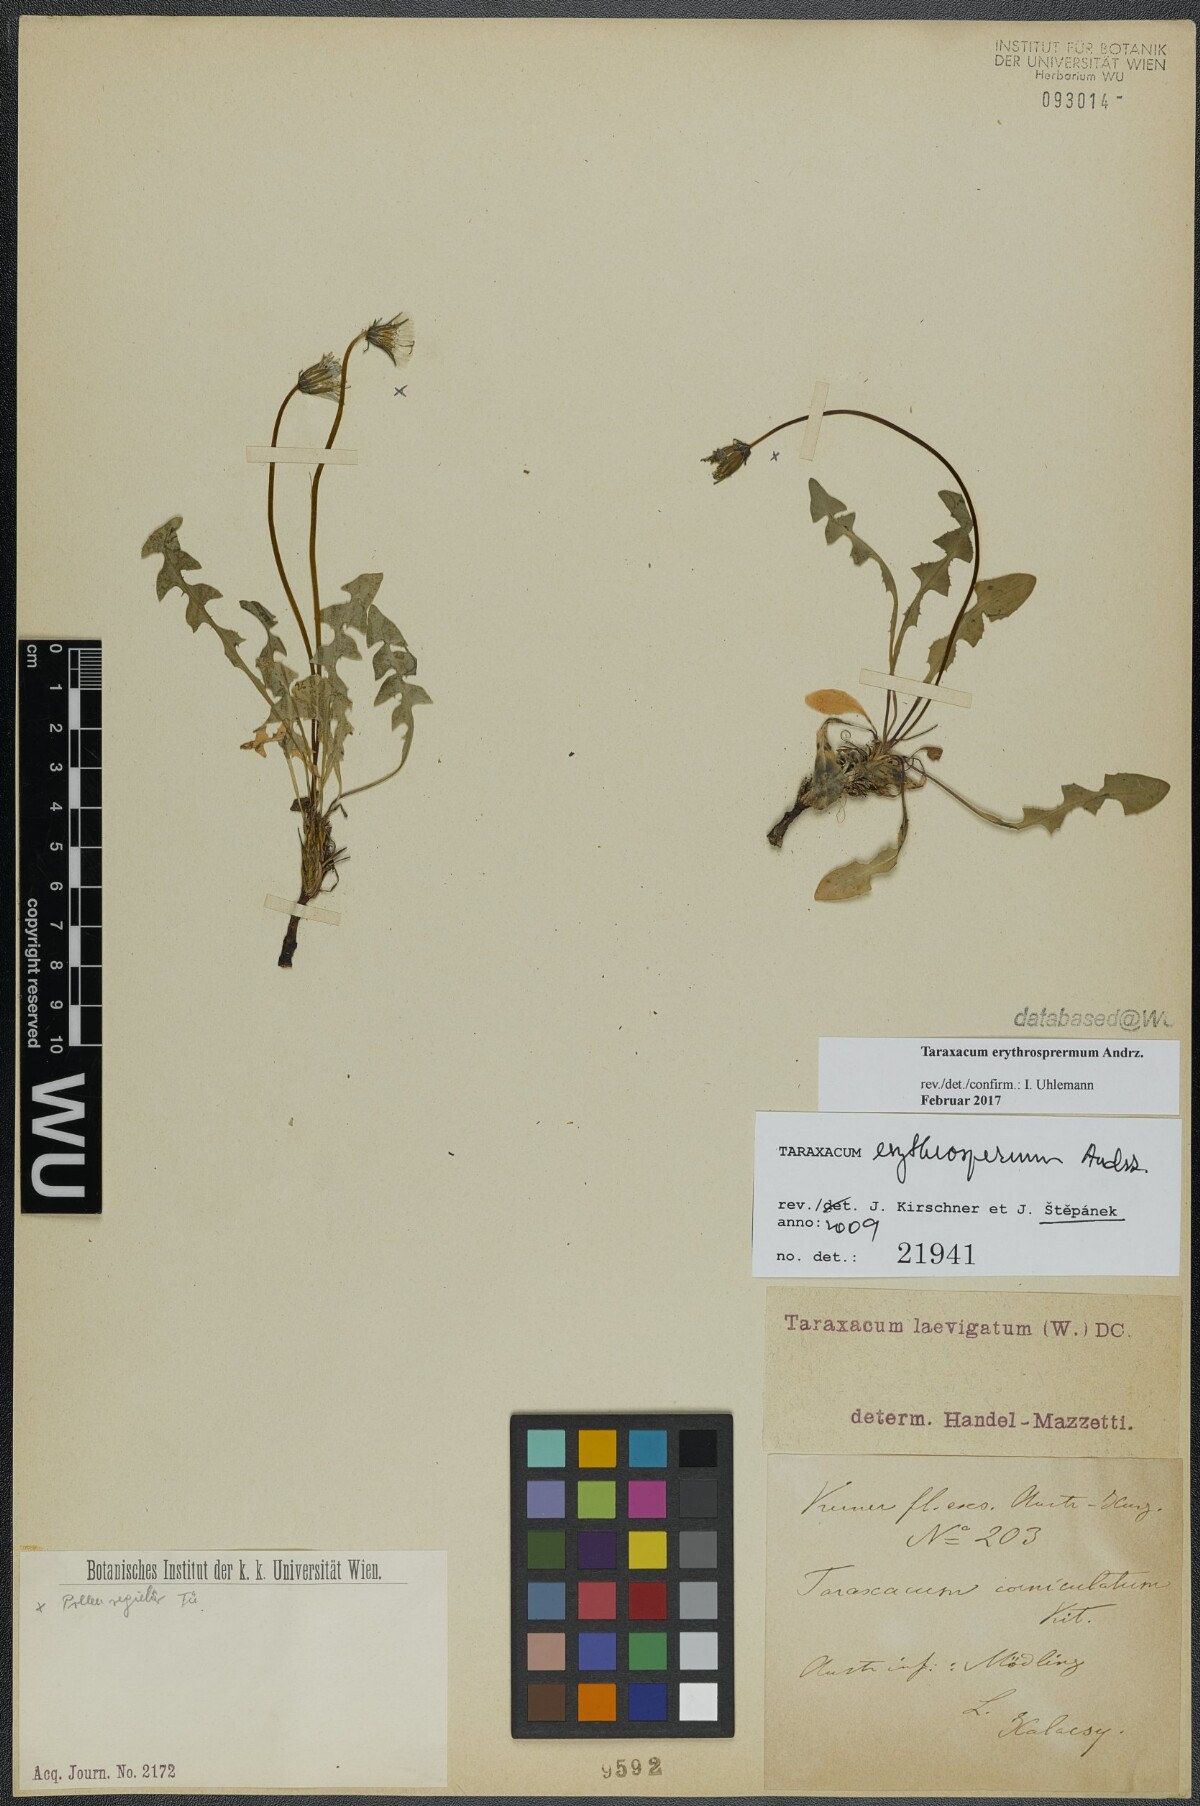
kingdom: Plantae
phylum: Tracheophyta
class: Magnoliopsida
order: Asterales
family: Asteraceae
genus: Taraxacum
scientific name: Taraxacum erythrospermum
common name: Rock dandelion
